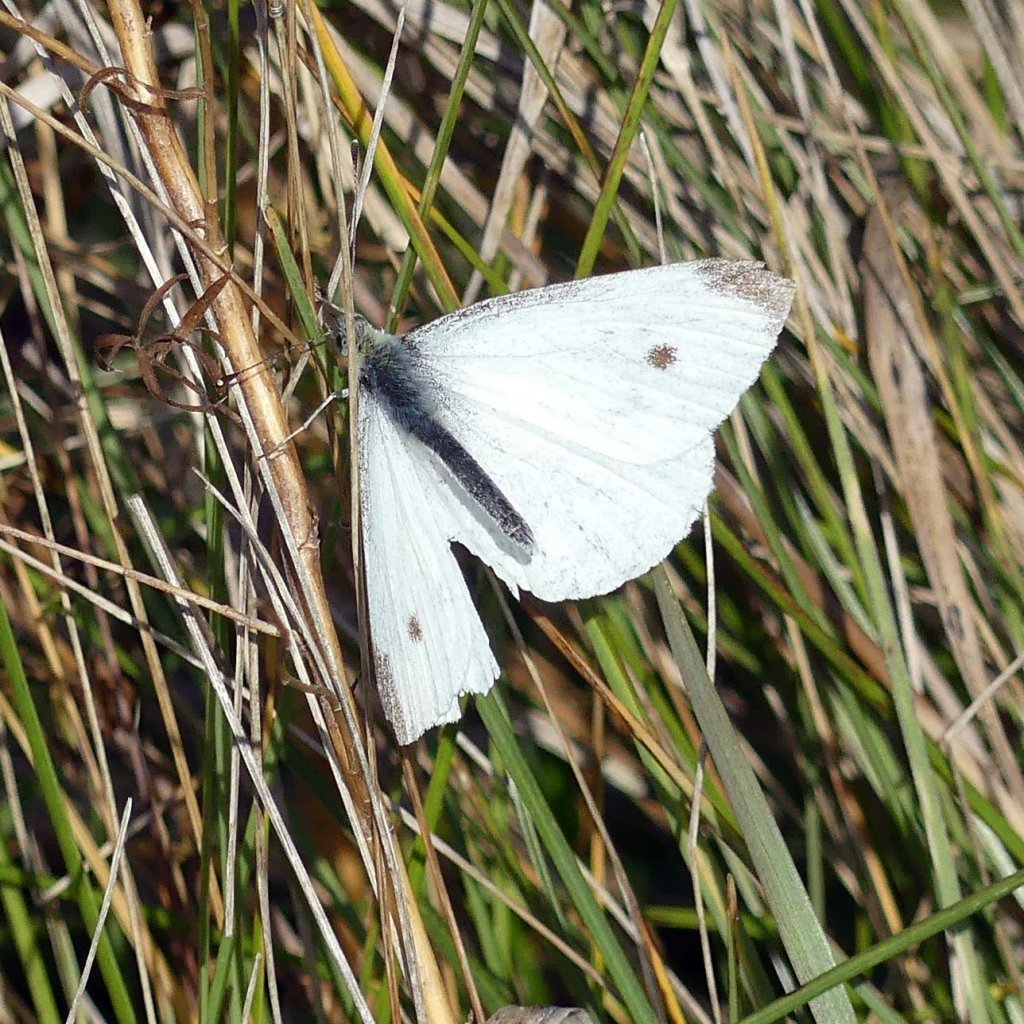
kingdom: Animalia
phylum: Arthropoda
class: Insecta
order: Lepidoptera
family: Pieridae
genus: Pieris
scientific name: Pieris rapae
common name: Cabbage White
